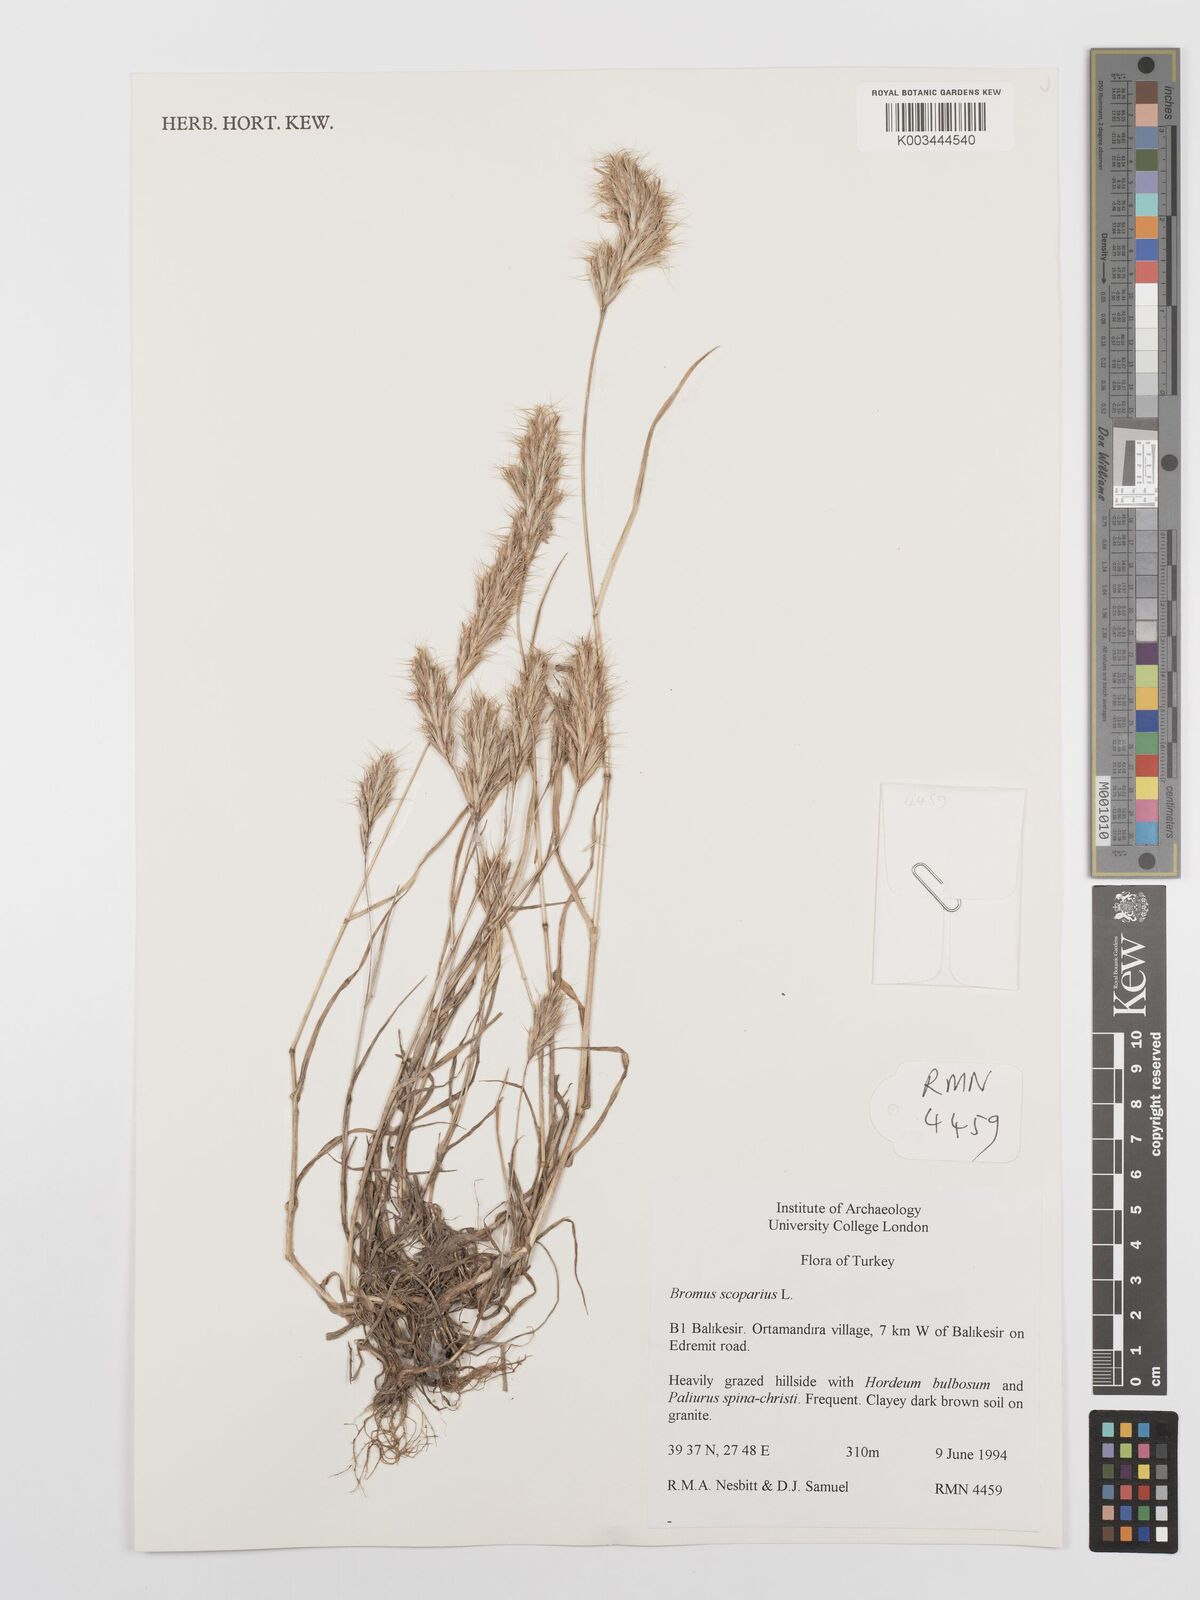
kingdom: Plantae
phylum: Tracheophyta
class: Liliopsida
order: Poales
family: Poaceae
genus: Bromus
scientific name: Bromus scoparius
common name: Broom brome
